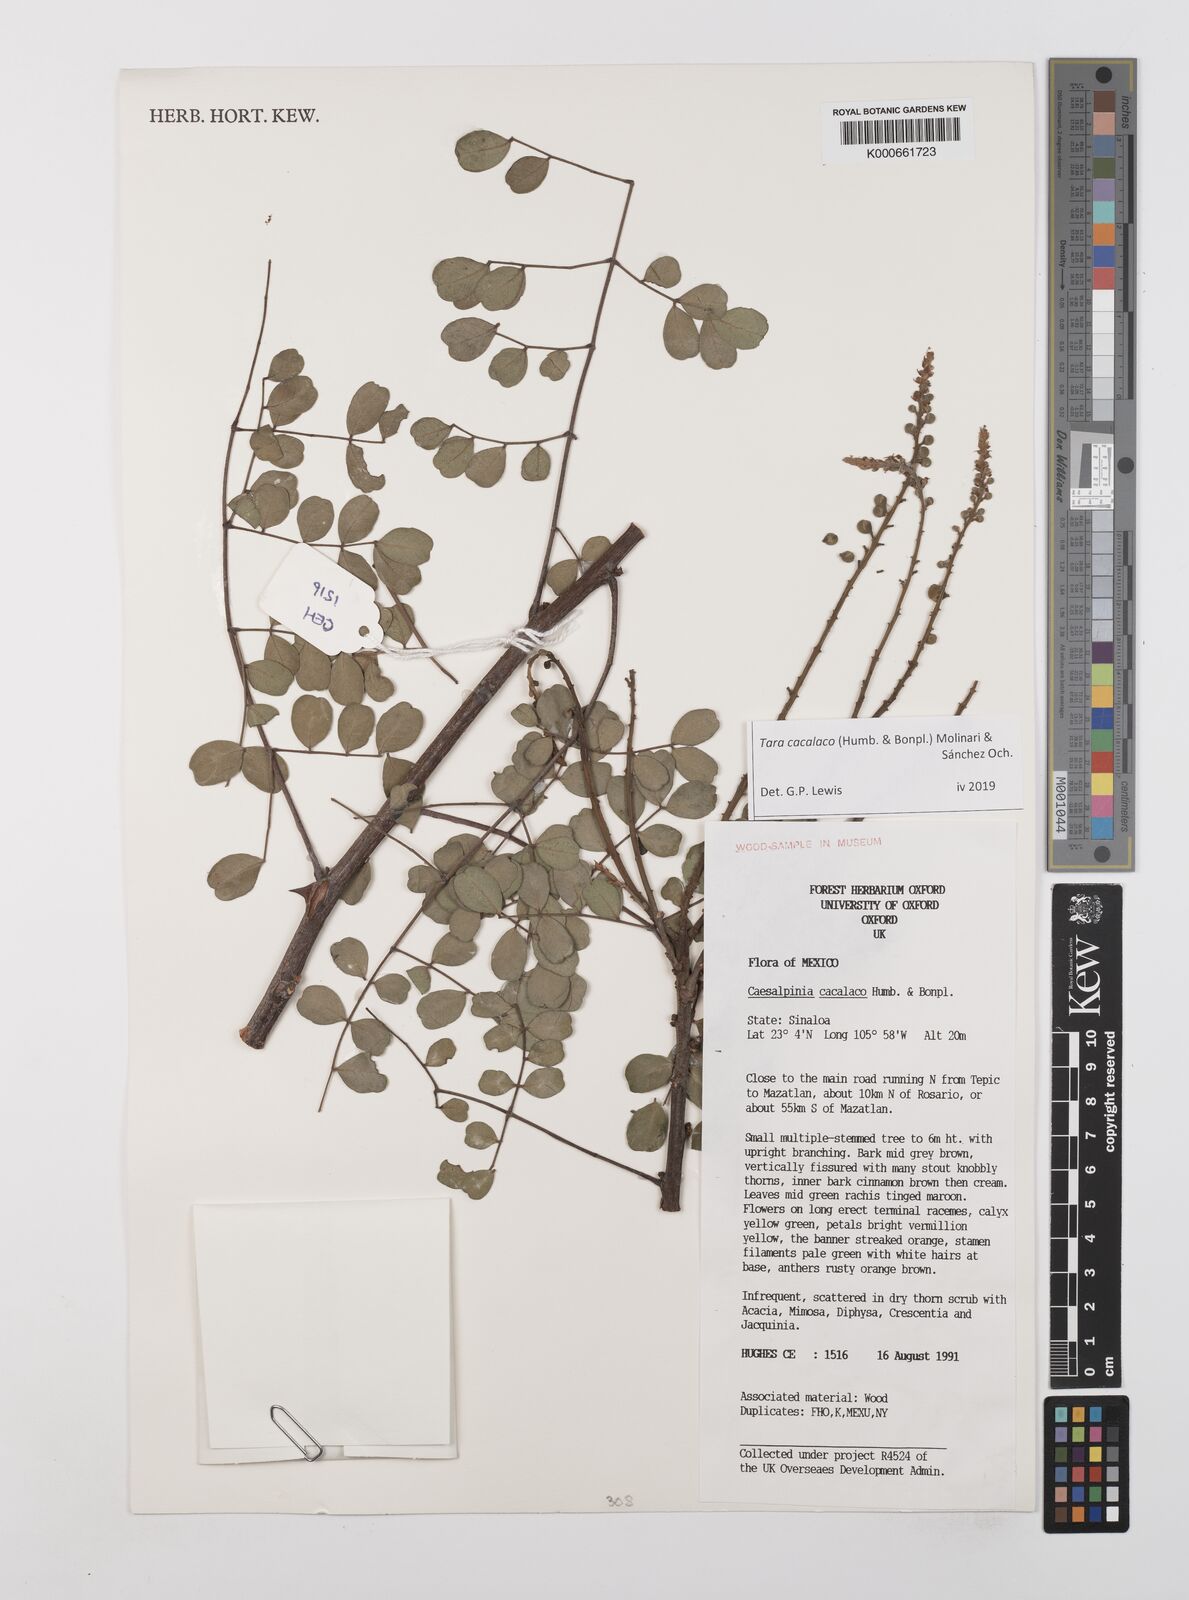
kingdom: Plantae
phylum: Tracheophyta
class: Magnoliopsida
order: Fabales
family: Fabaceae
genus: Tara
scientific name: Tara cacalaco
